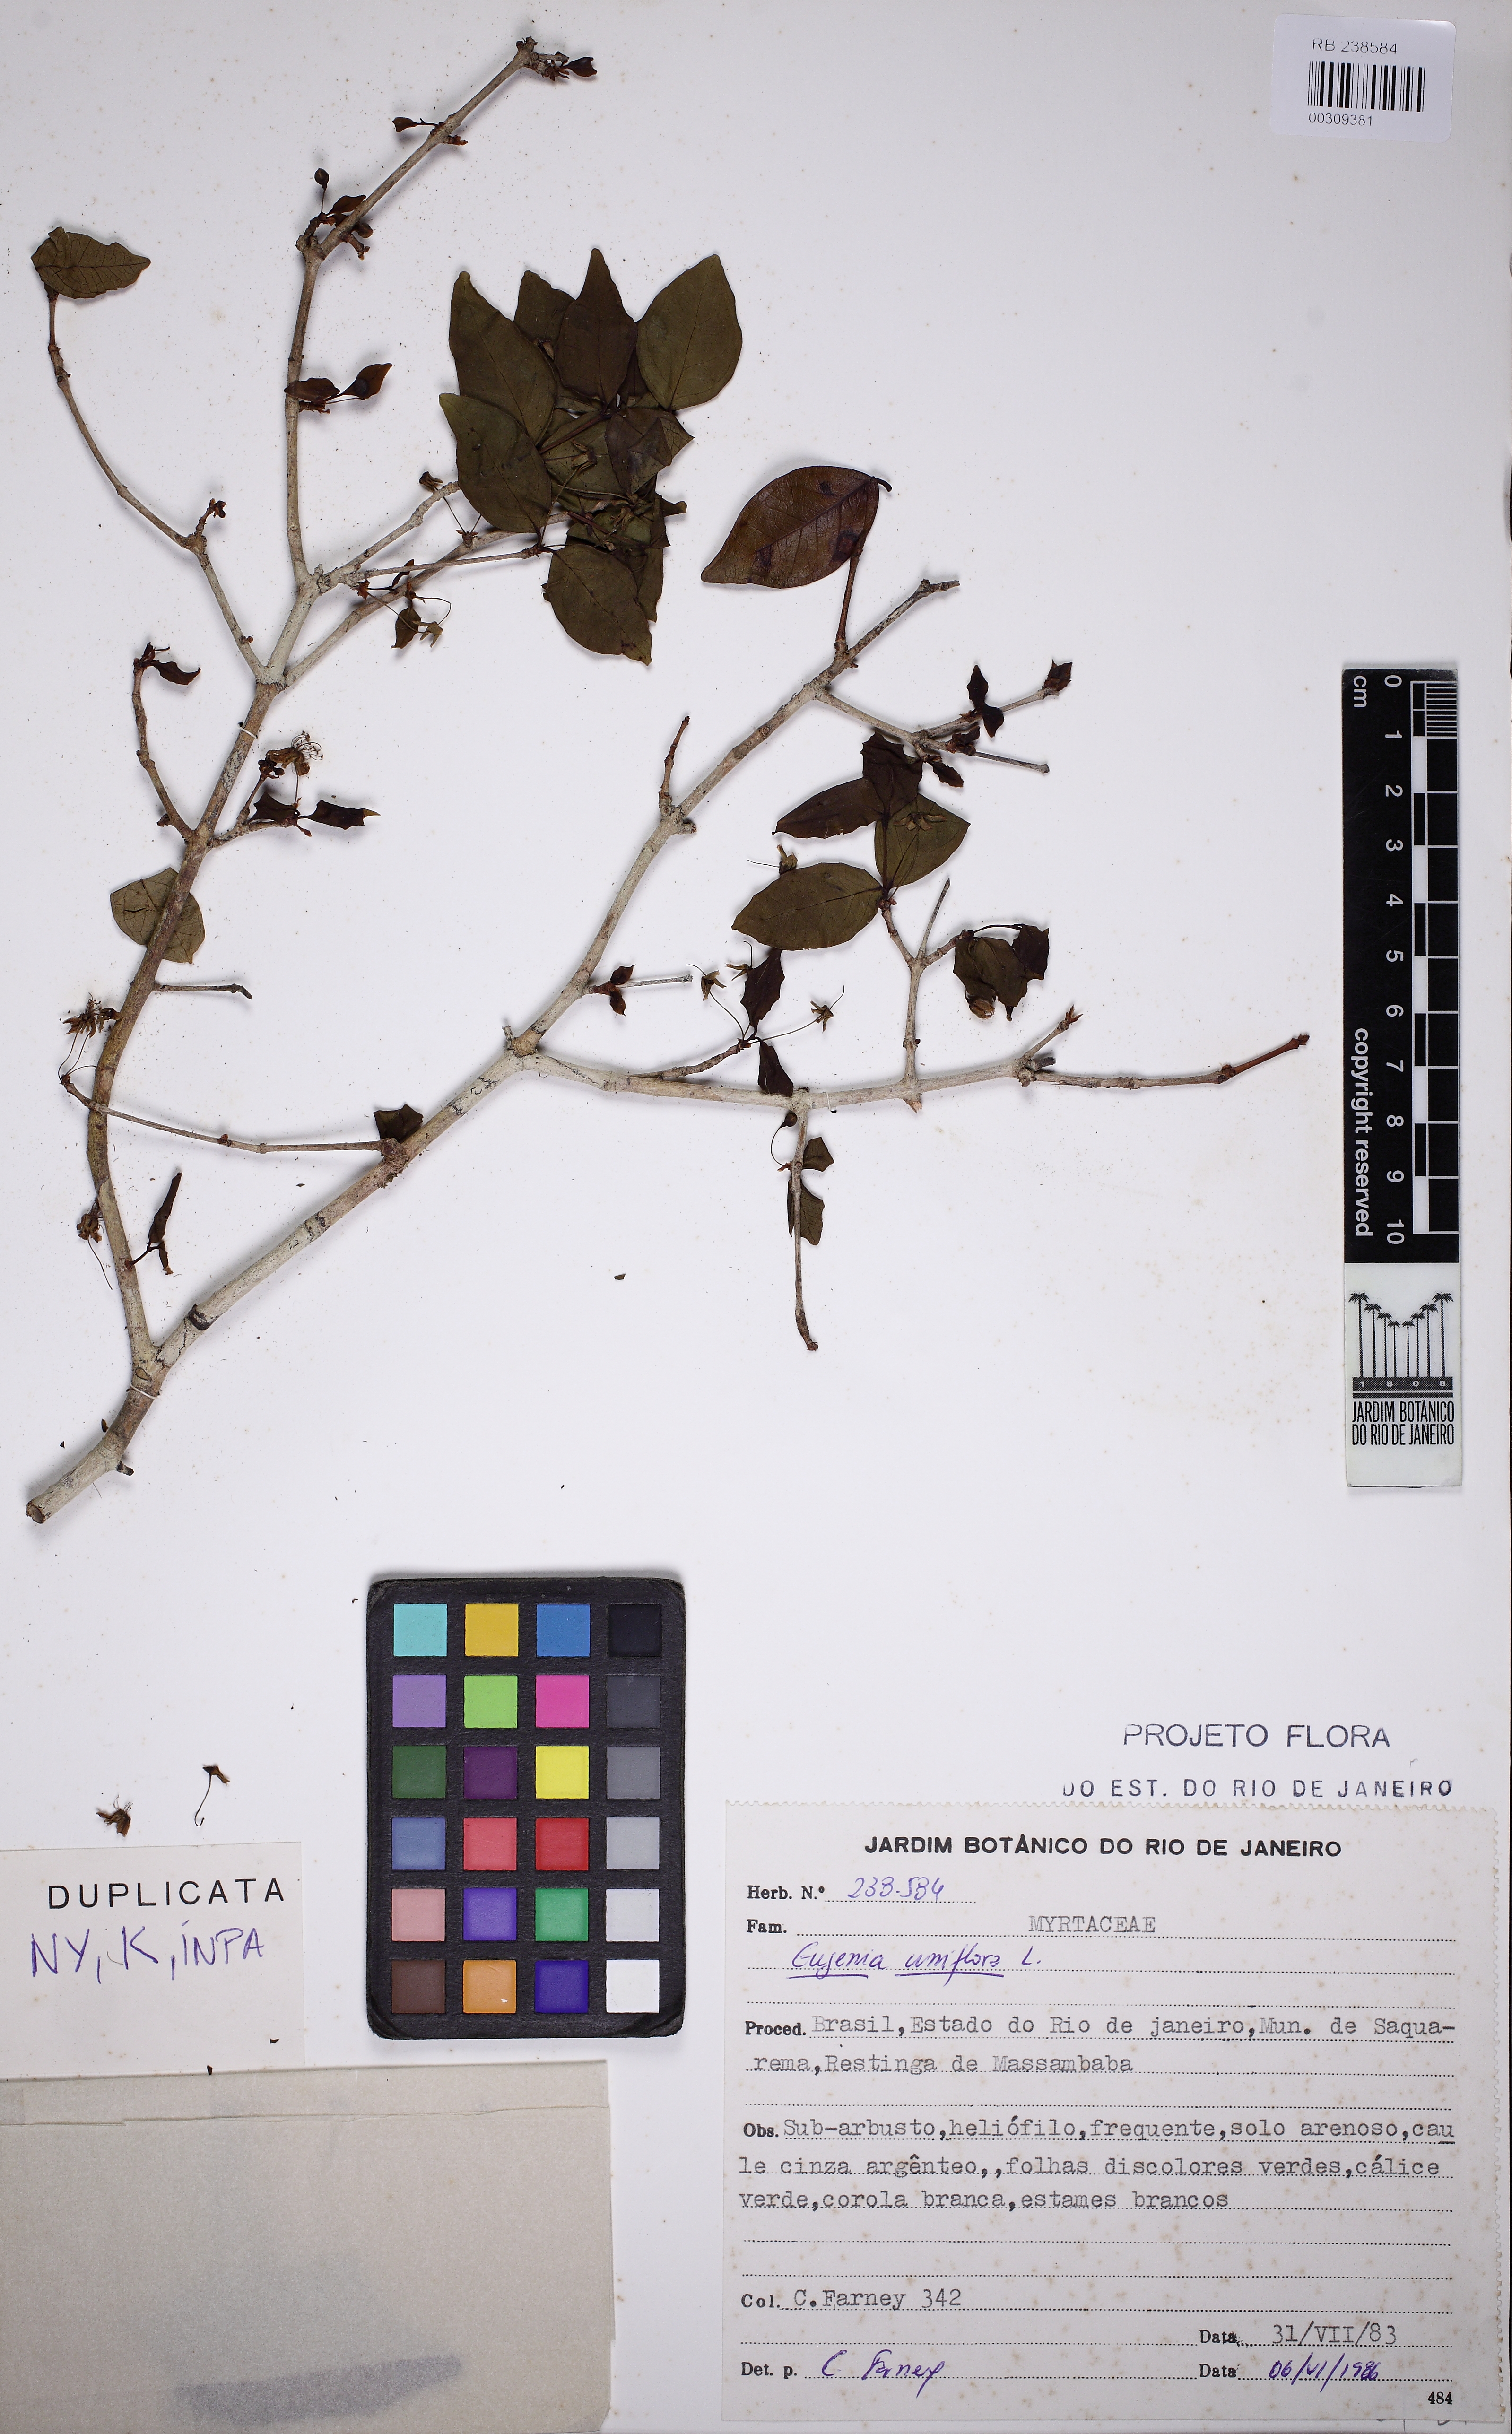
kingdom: Plantae
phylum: Tracheophyta
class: Magnoliopsida
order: Myrtales
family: Myrtaceae
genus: Eugenia
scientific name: Eugenia uniflora
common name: Surinam cherry
